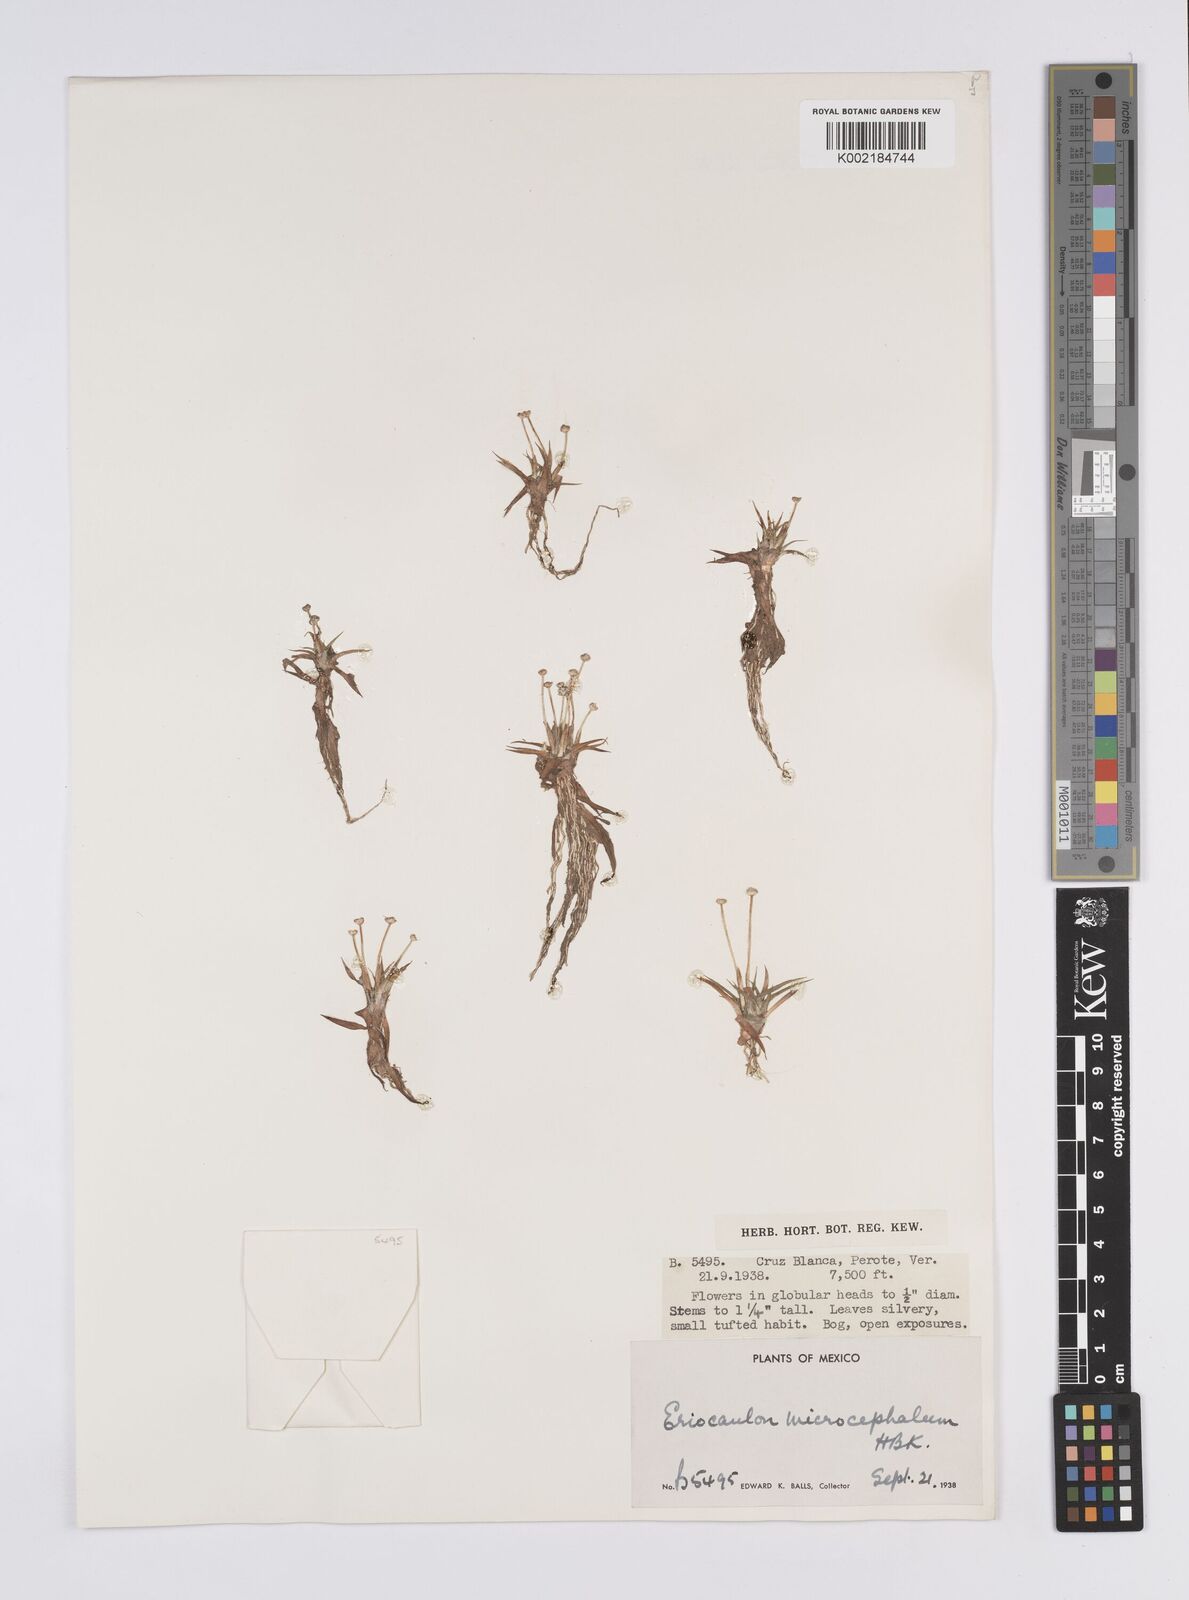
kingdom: Plantae
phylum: Tracheophyta
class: Liliopsida
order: Poales
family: Eriocaulaceae
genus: Eriocaulon
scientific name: Eriocaulon benthamii
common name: Bentham's pipewort
